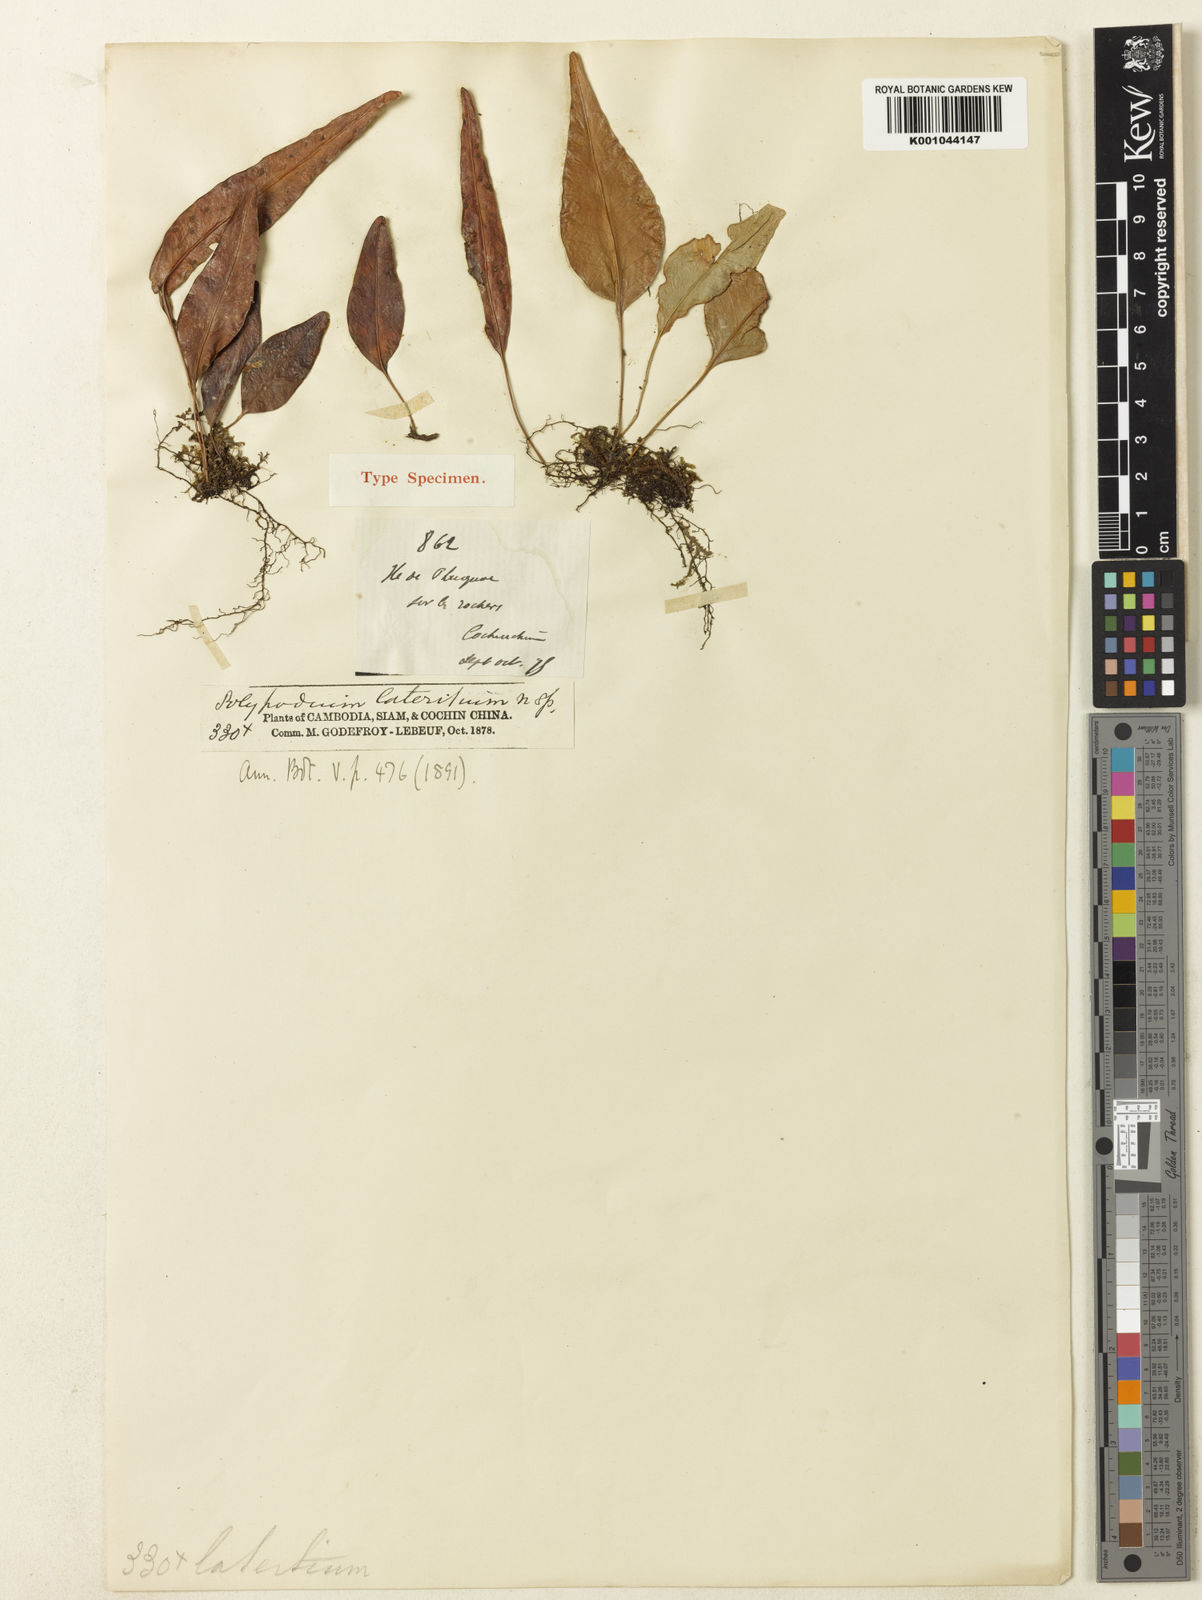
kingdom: Plantae
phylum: Tracheophyta
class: Polypodiopsida
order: Polypodiales
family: Polypodiaceae
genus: Selliguea
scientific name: Selliguea lateritia
